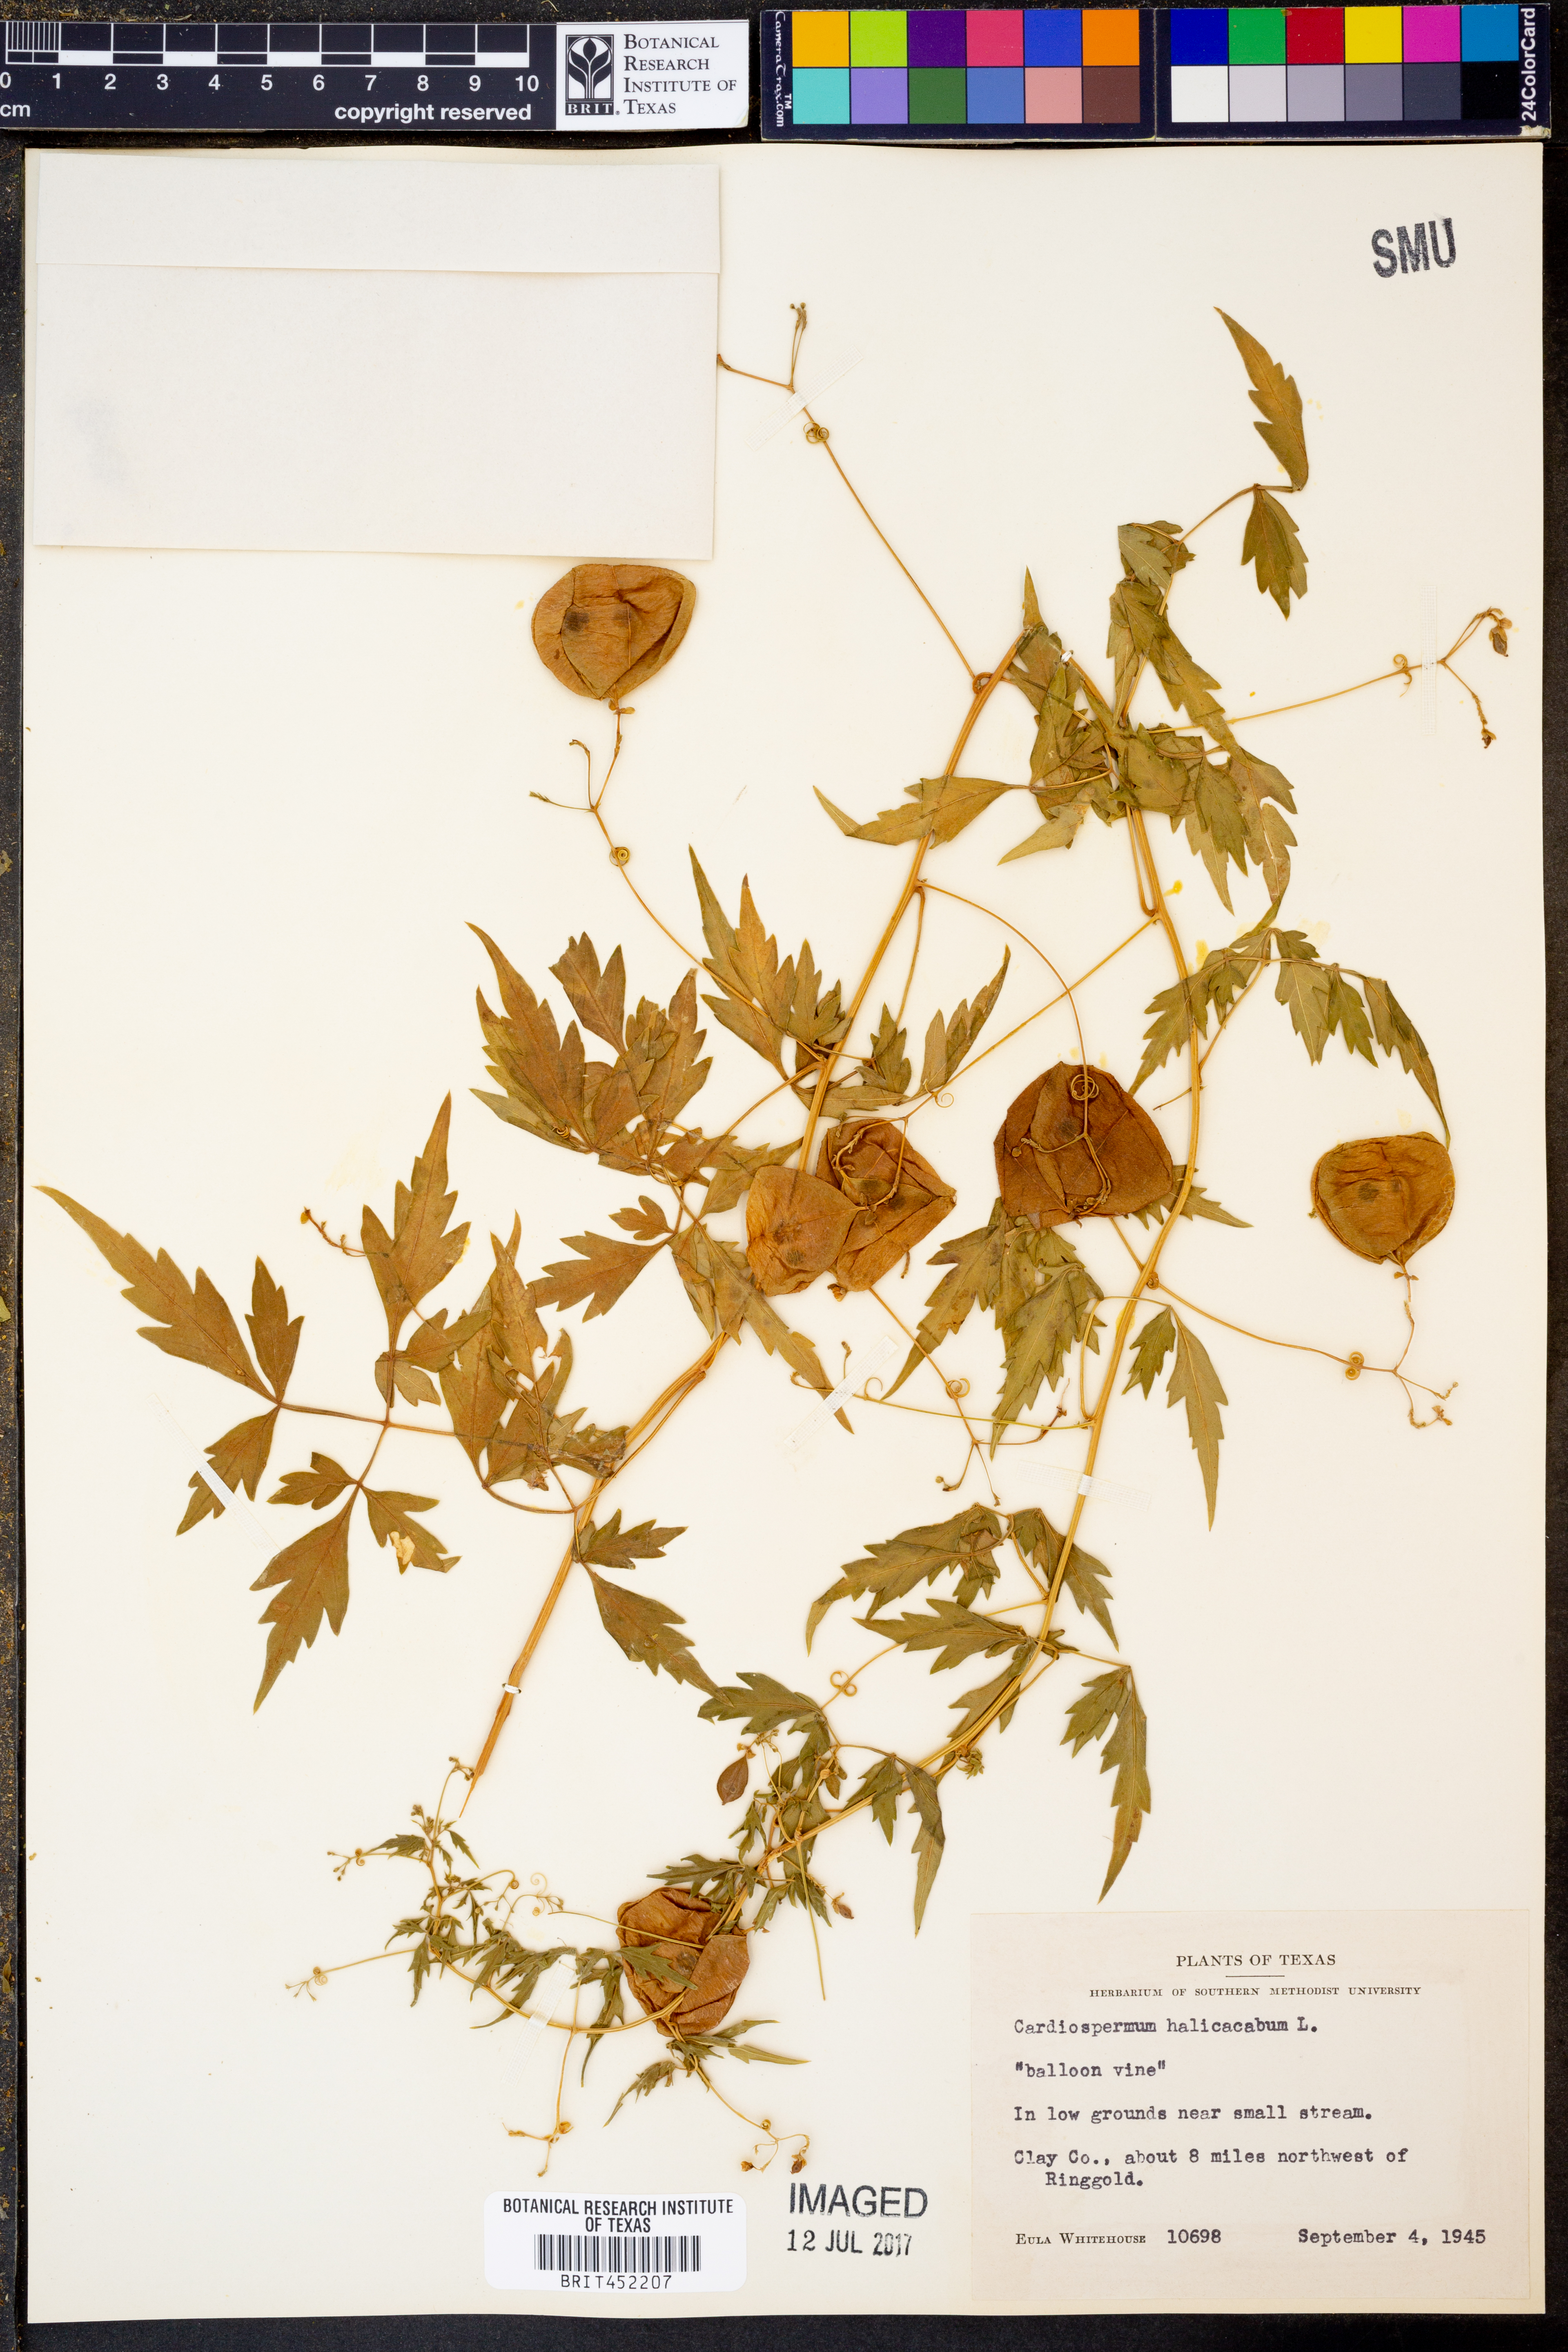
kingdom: Plantae
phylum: Tracheophyta
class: Magnoliopsida
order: Sapindales
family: Sapindaceae
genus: Cardiospermum
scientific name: Cardiospermum halicacabum
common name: Balloon vine
